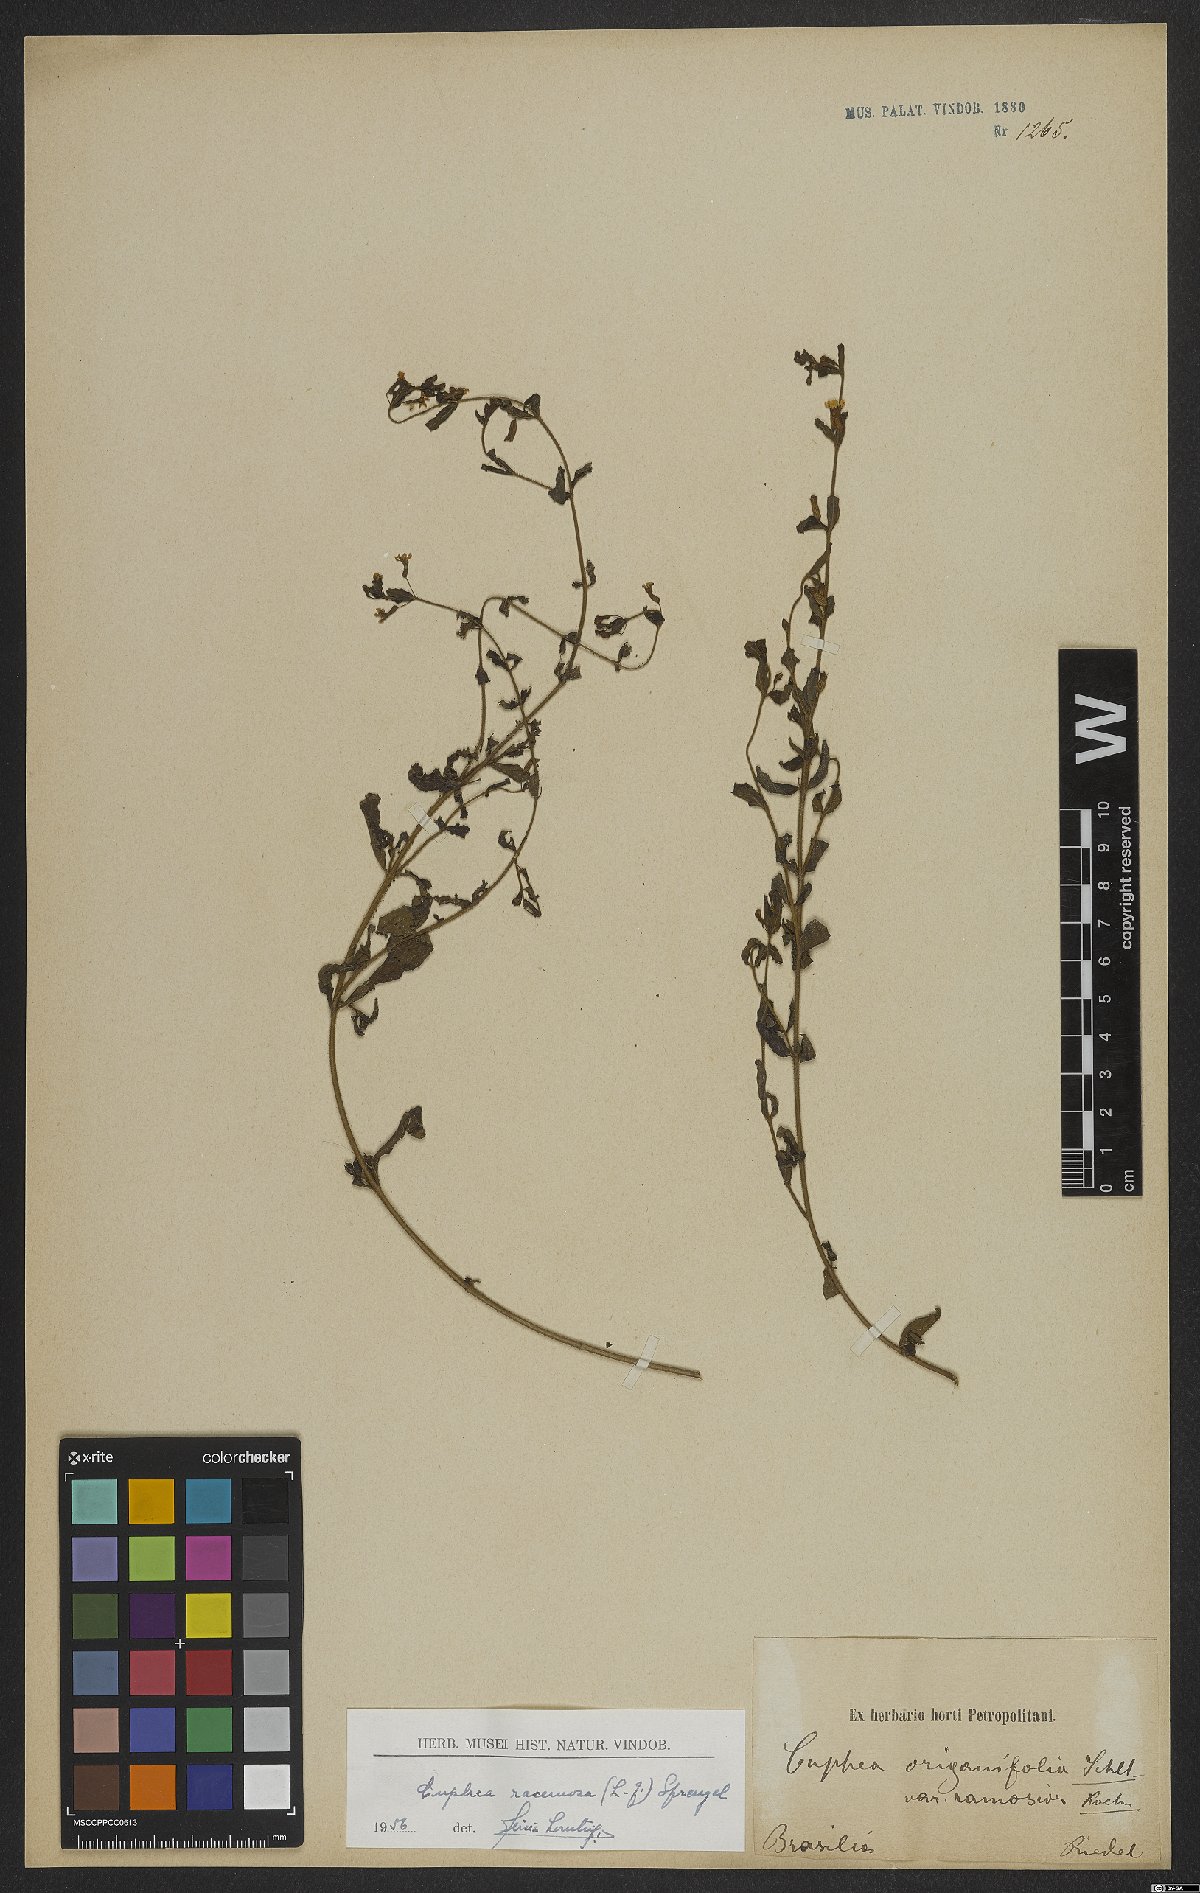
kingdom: Plantae
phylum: Tracheophyta
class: Magnoliopsida
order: Myrtales
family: Lythraceae
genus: Cuphea
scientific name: Cuphea racemosa
